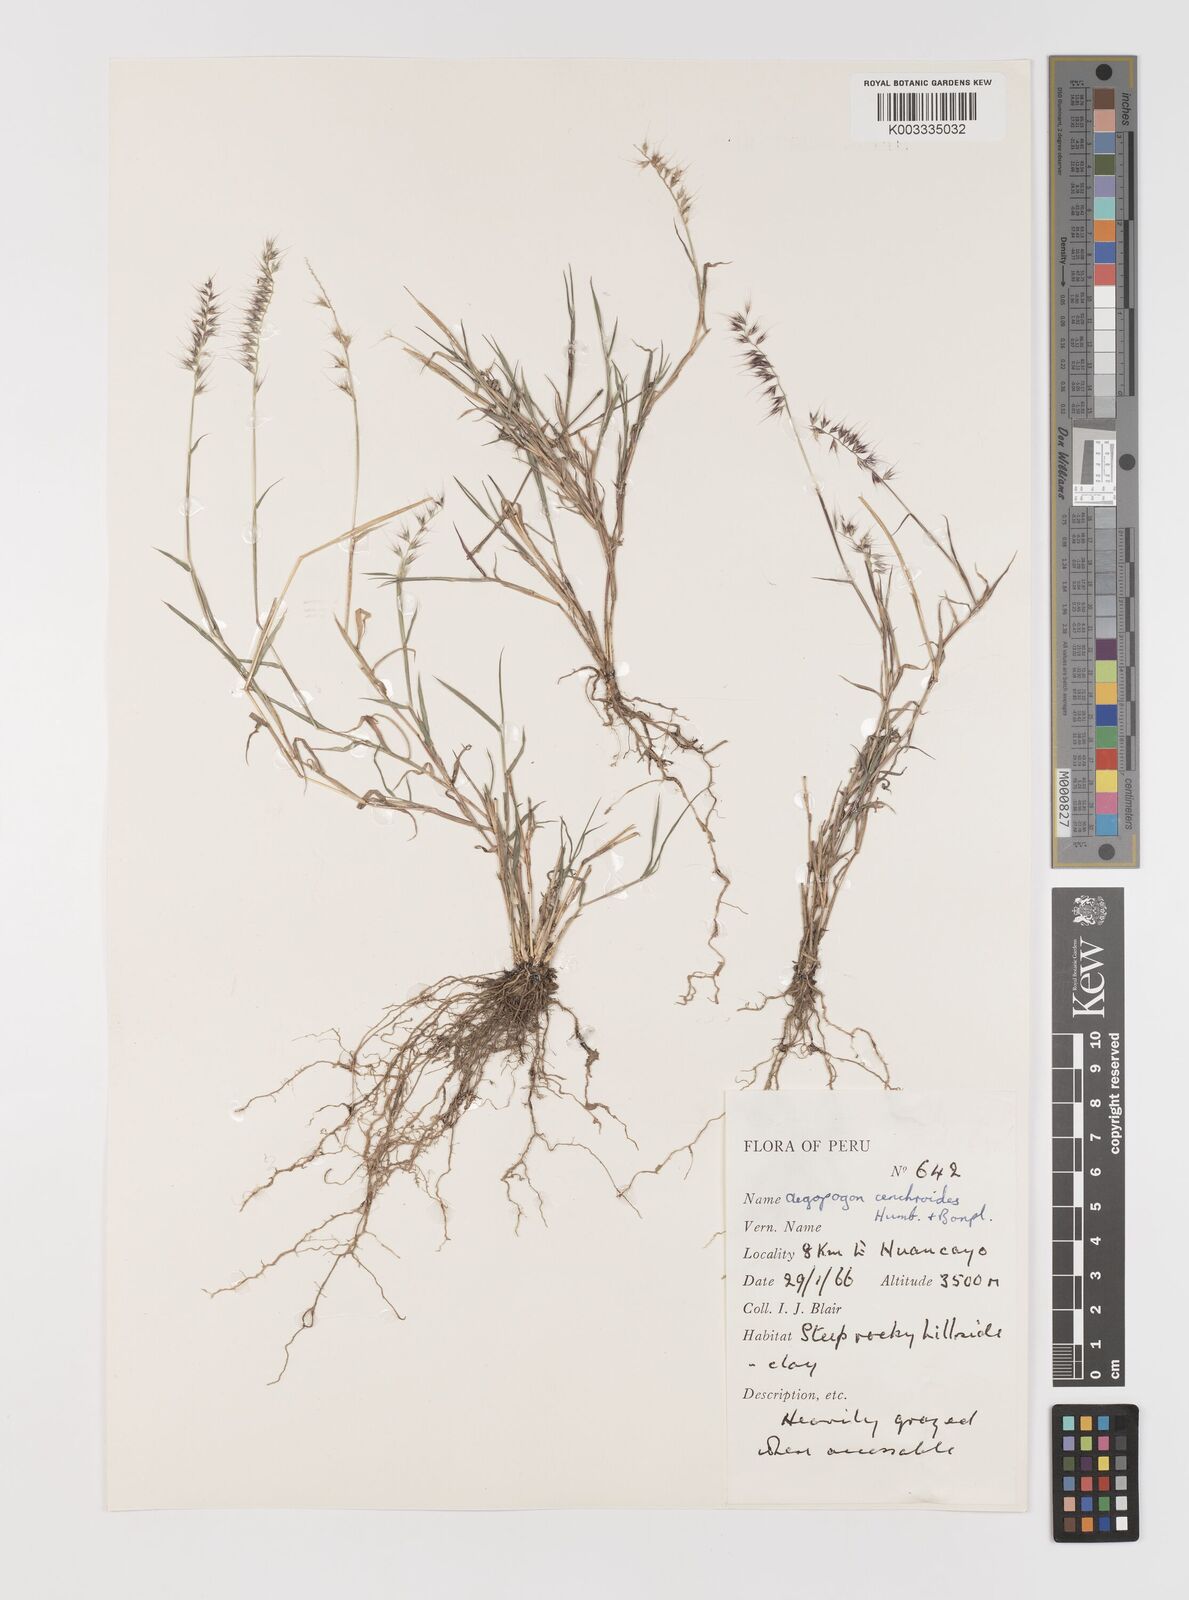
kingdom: Plantae
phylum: Tracheophyta
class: Liliopsida
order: Poales
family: Poaceae
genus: Muhlenbergia
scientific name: Muhlenbergia cenchroides
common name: Relaxgrass
